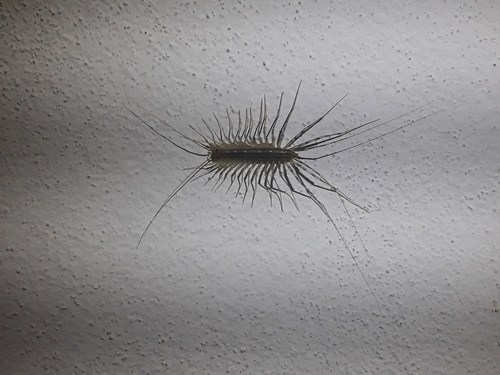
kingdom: Animalia
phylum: Arthropoda
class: Chilopoda
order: Scutigeromorpha
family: Scutigeridae
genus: Scutigera
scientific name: Scutigera coleoptrata
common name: House centipede
